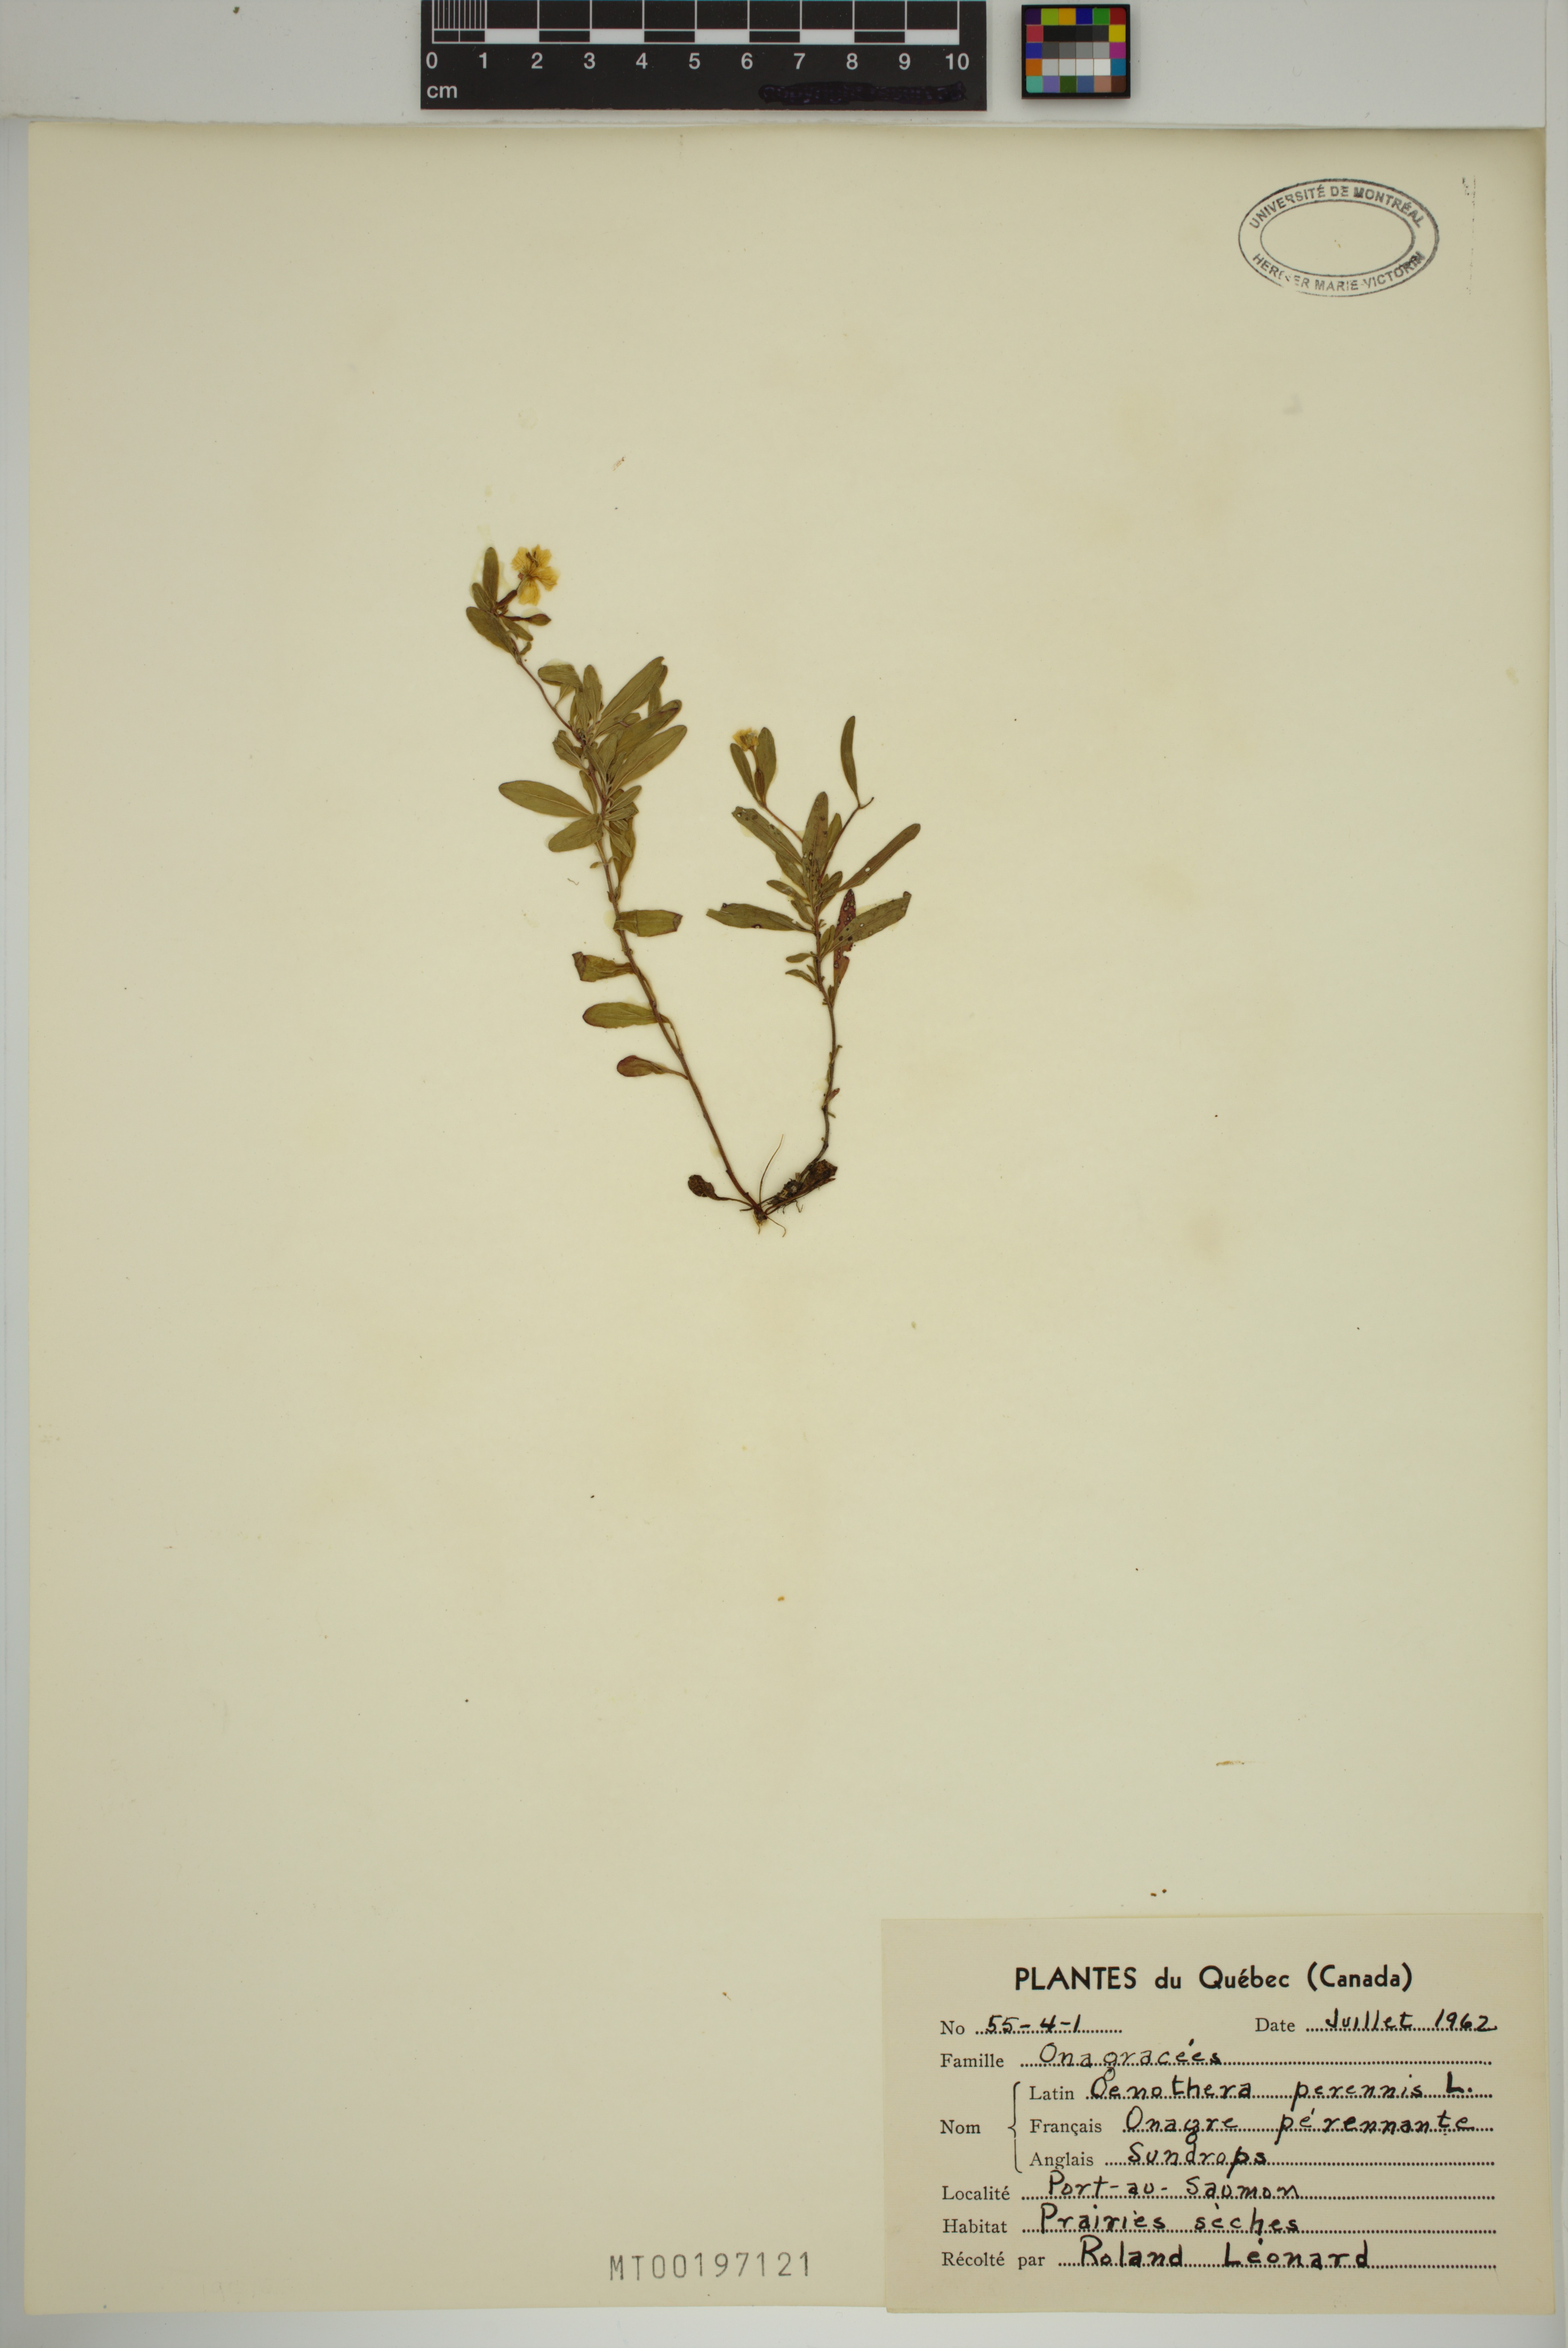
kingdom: Plantae
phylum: Tracheophyta
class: Magnoliopsida
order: Myrtales
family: Onagraceae
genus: Oenothera
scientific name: Oenothera perennis
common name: Small sundrops
